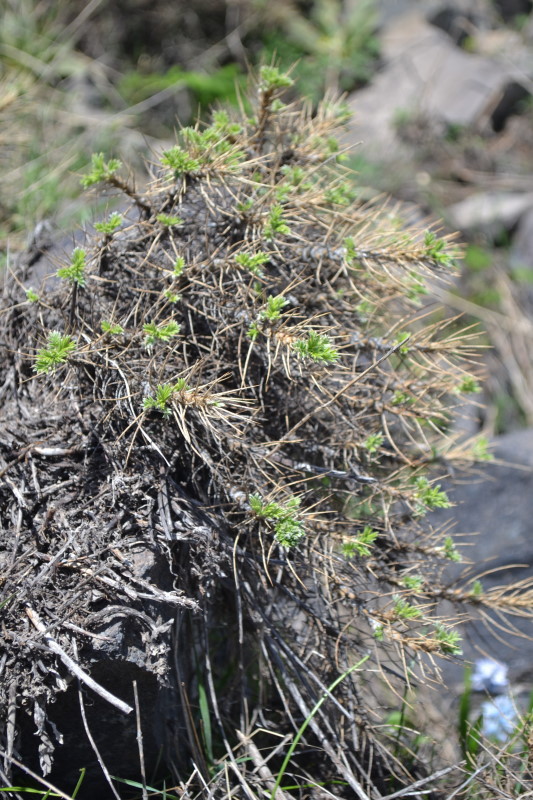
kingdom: Plantae
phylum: Tracheophyta
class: Magnoliopsida
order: Fabales
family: Fabaceae
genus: Astragalus
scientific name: Astragalus arnacantha
